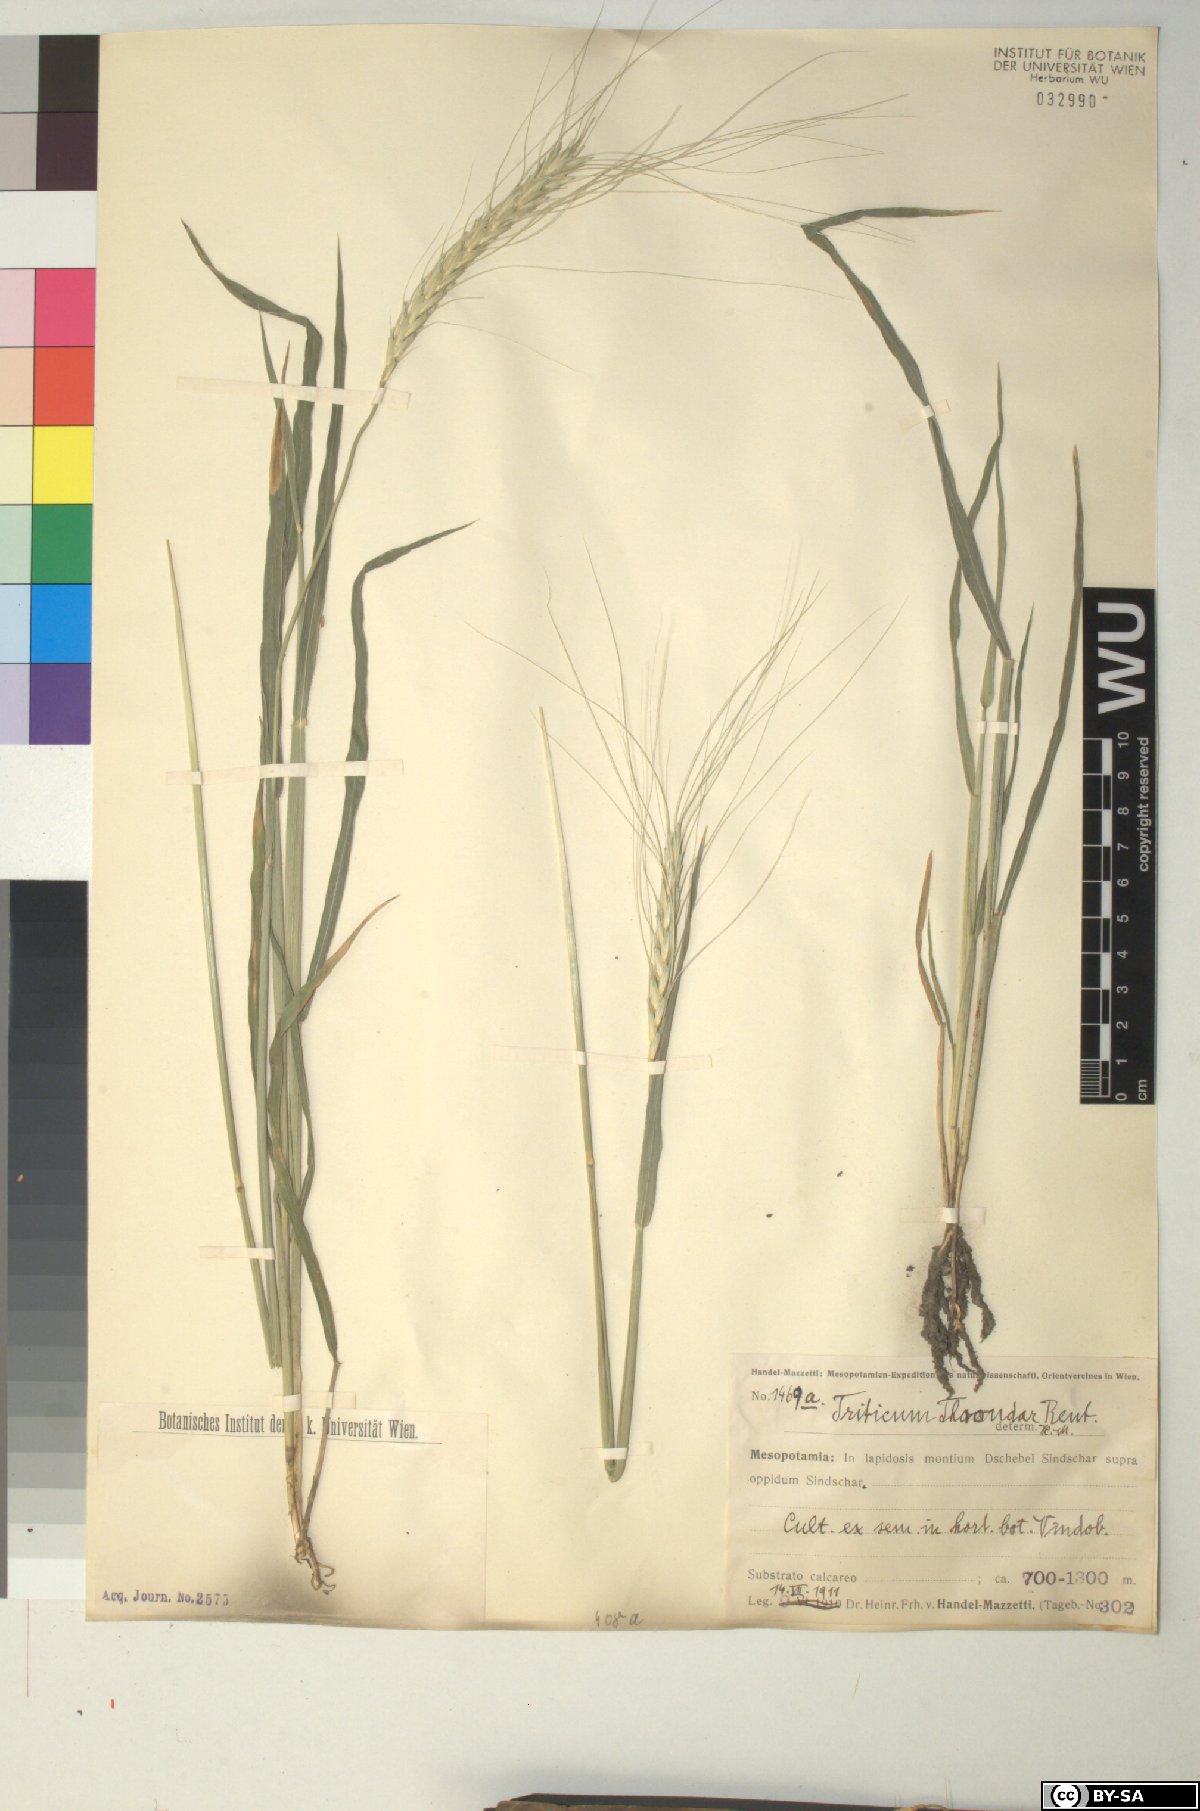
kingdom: Plantae
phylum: Tracheophyta
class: Liliopsida
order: Poales
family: Poaceae
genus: Triticum
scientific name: Triticum monococcum
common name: Einkorn
